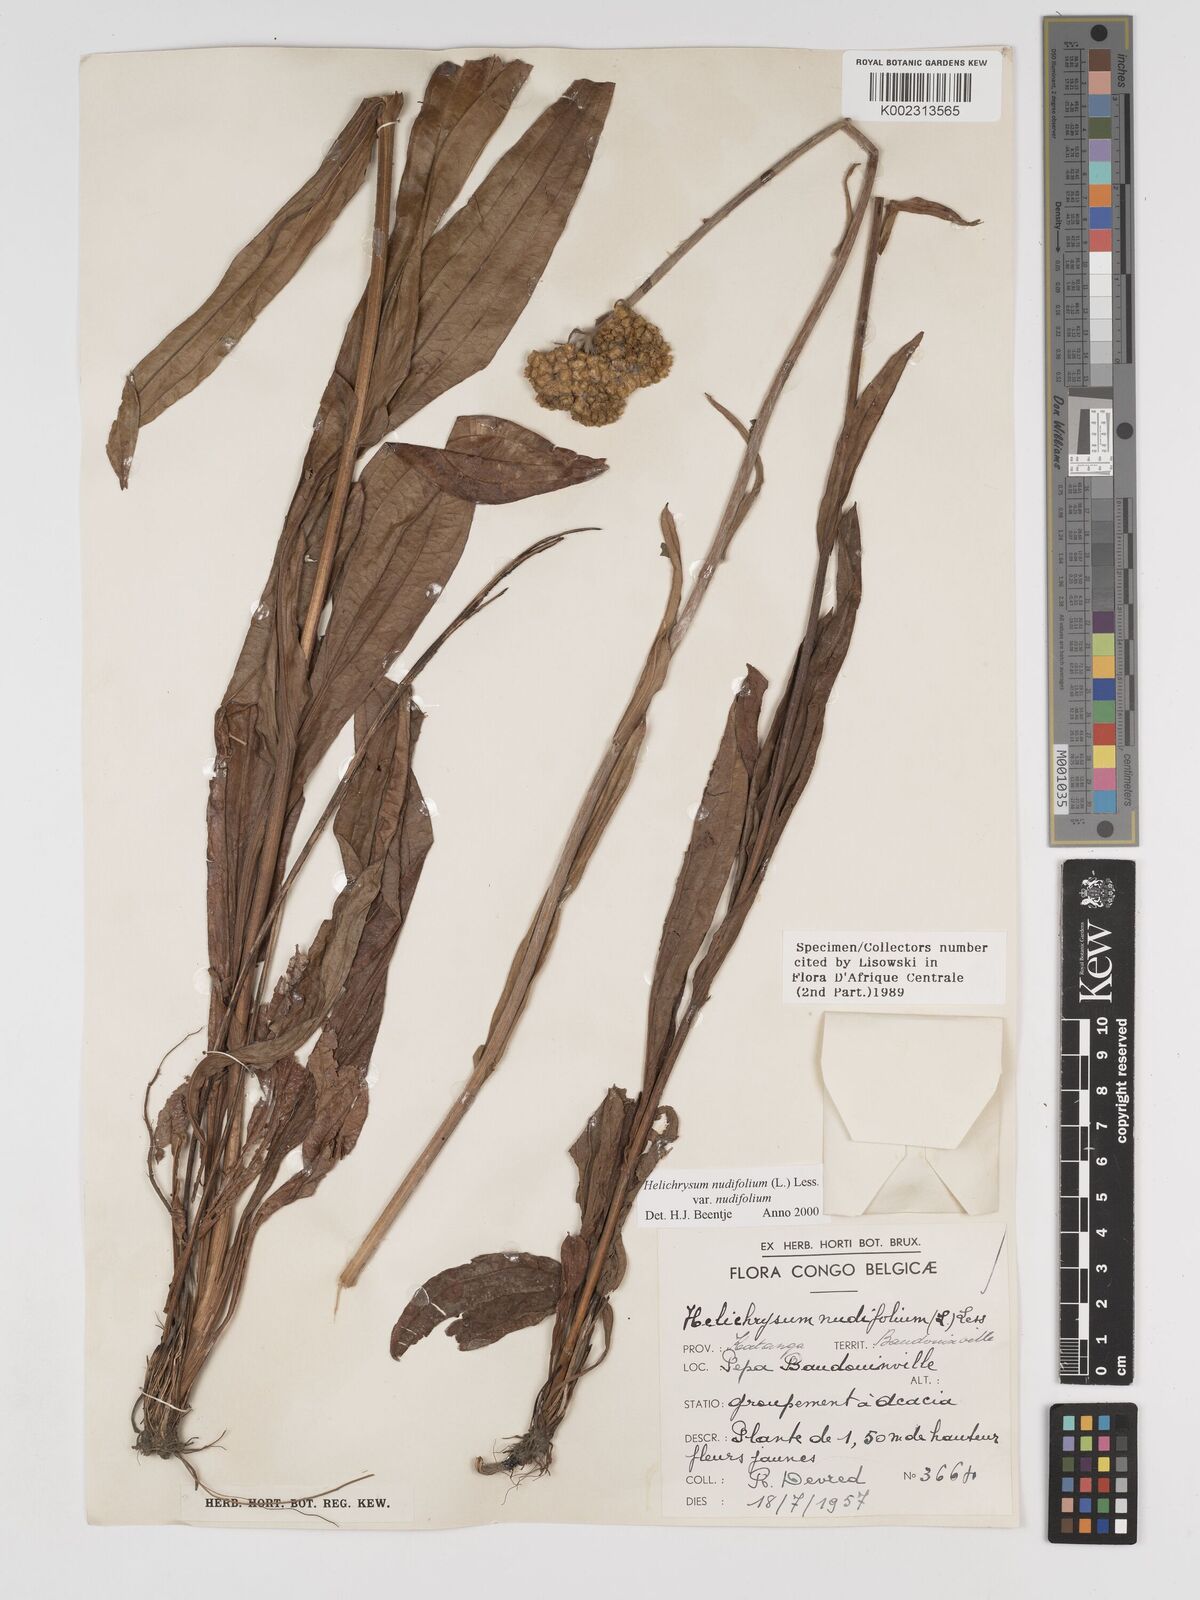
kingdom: Plantae
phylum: Tracheophyta
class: Magnoliopsida
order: Asterales
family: Asteraceae
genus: Helichrysum
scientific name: Helichrysum nudifolium
